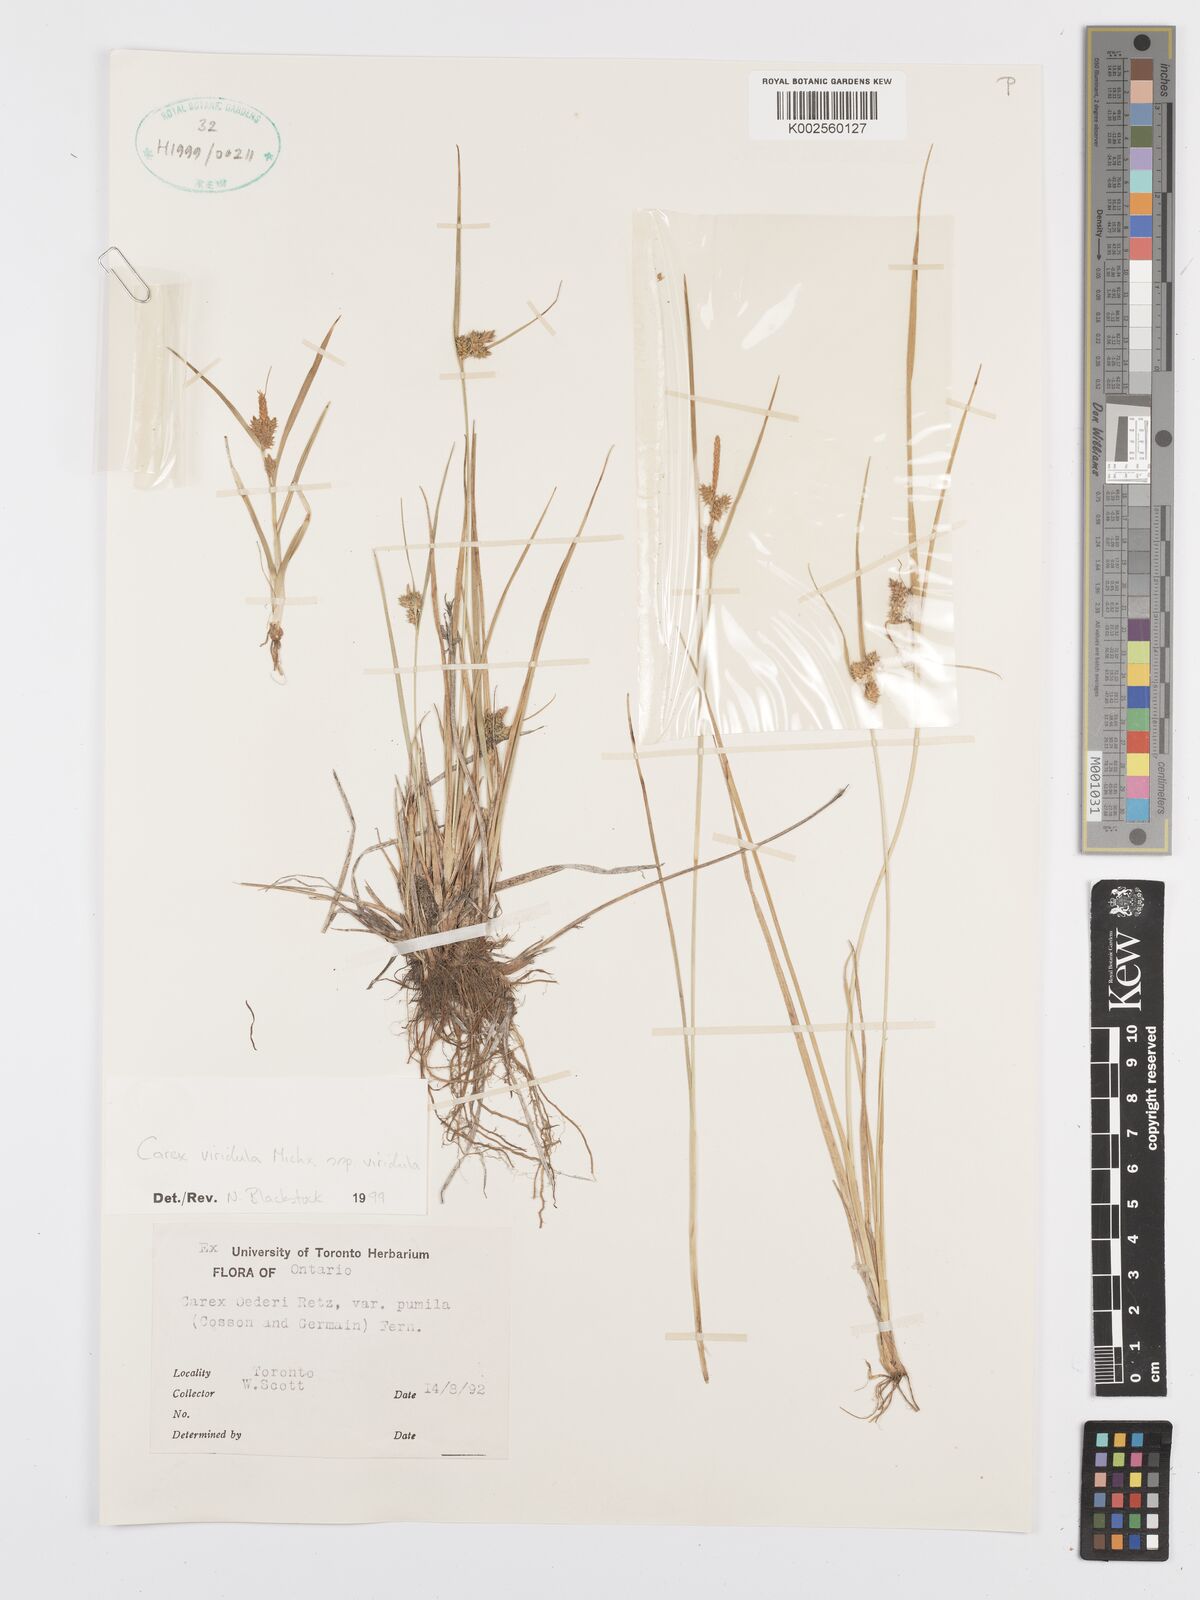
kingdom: Plantae
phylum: Tracheophyta
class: Liliopsida
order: Poales
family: Cyperaceae
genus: Carex
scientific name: Carex oederi
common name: Common & small-fruited yellow-sedge
